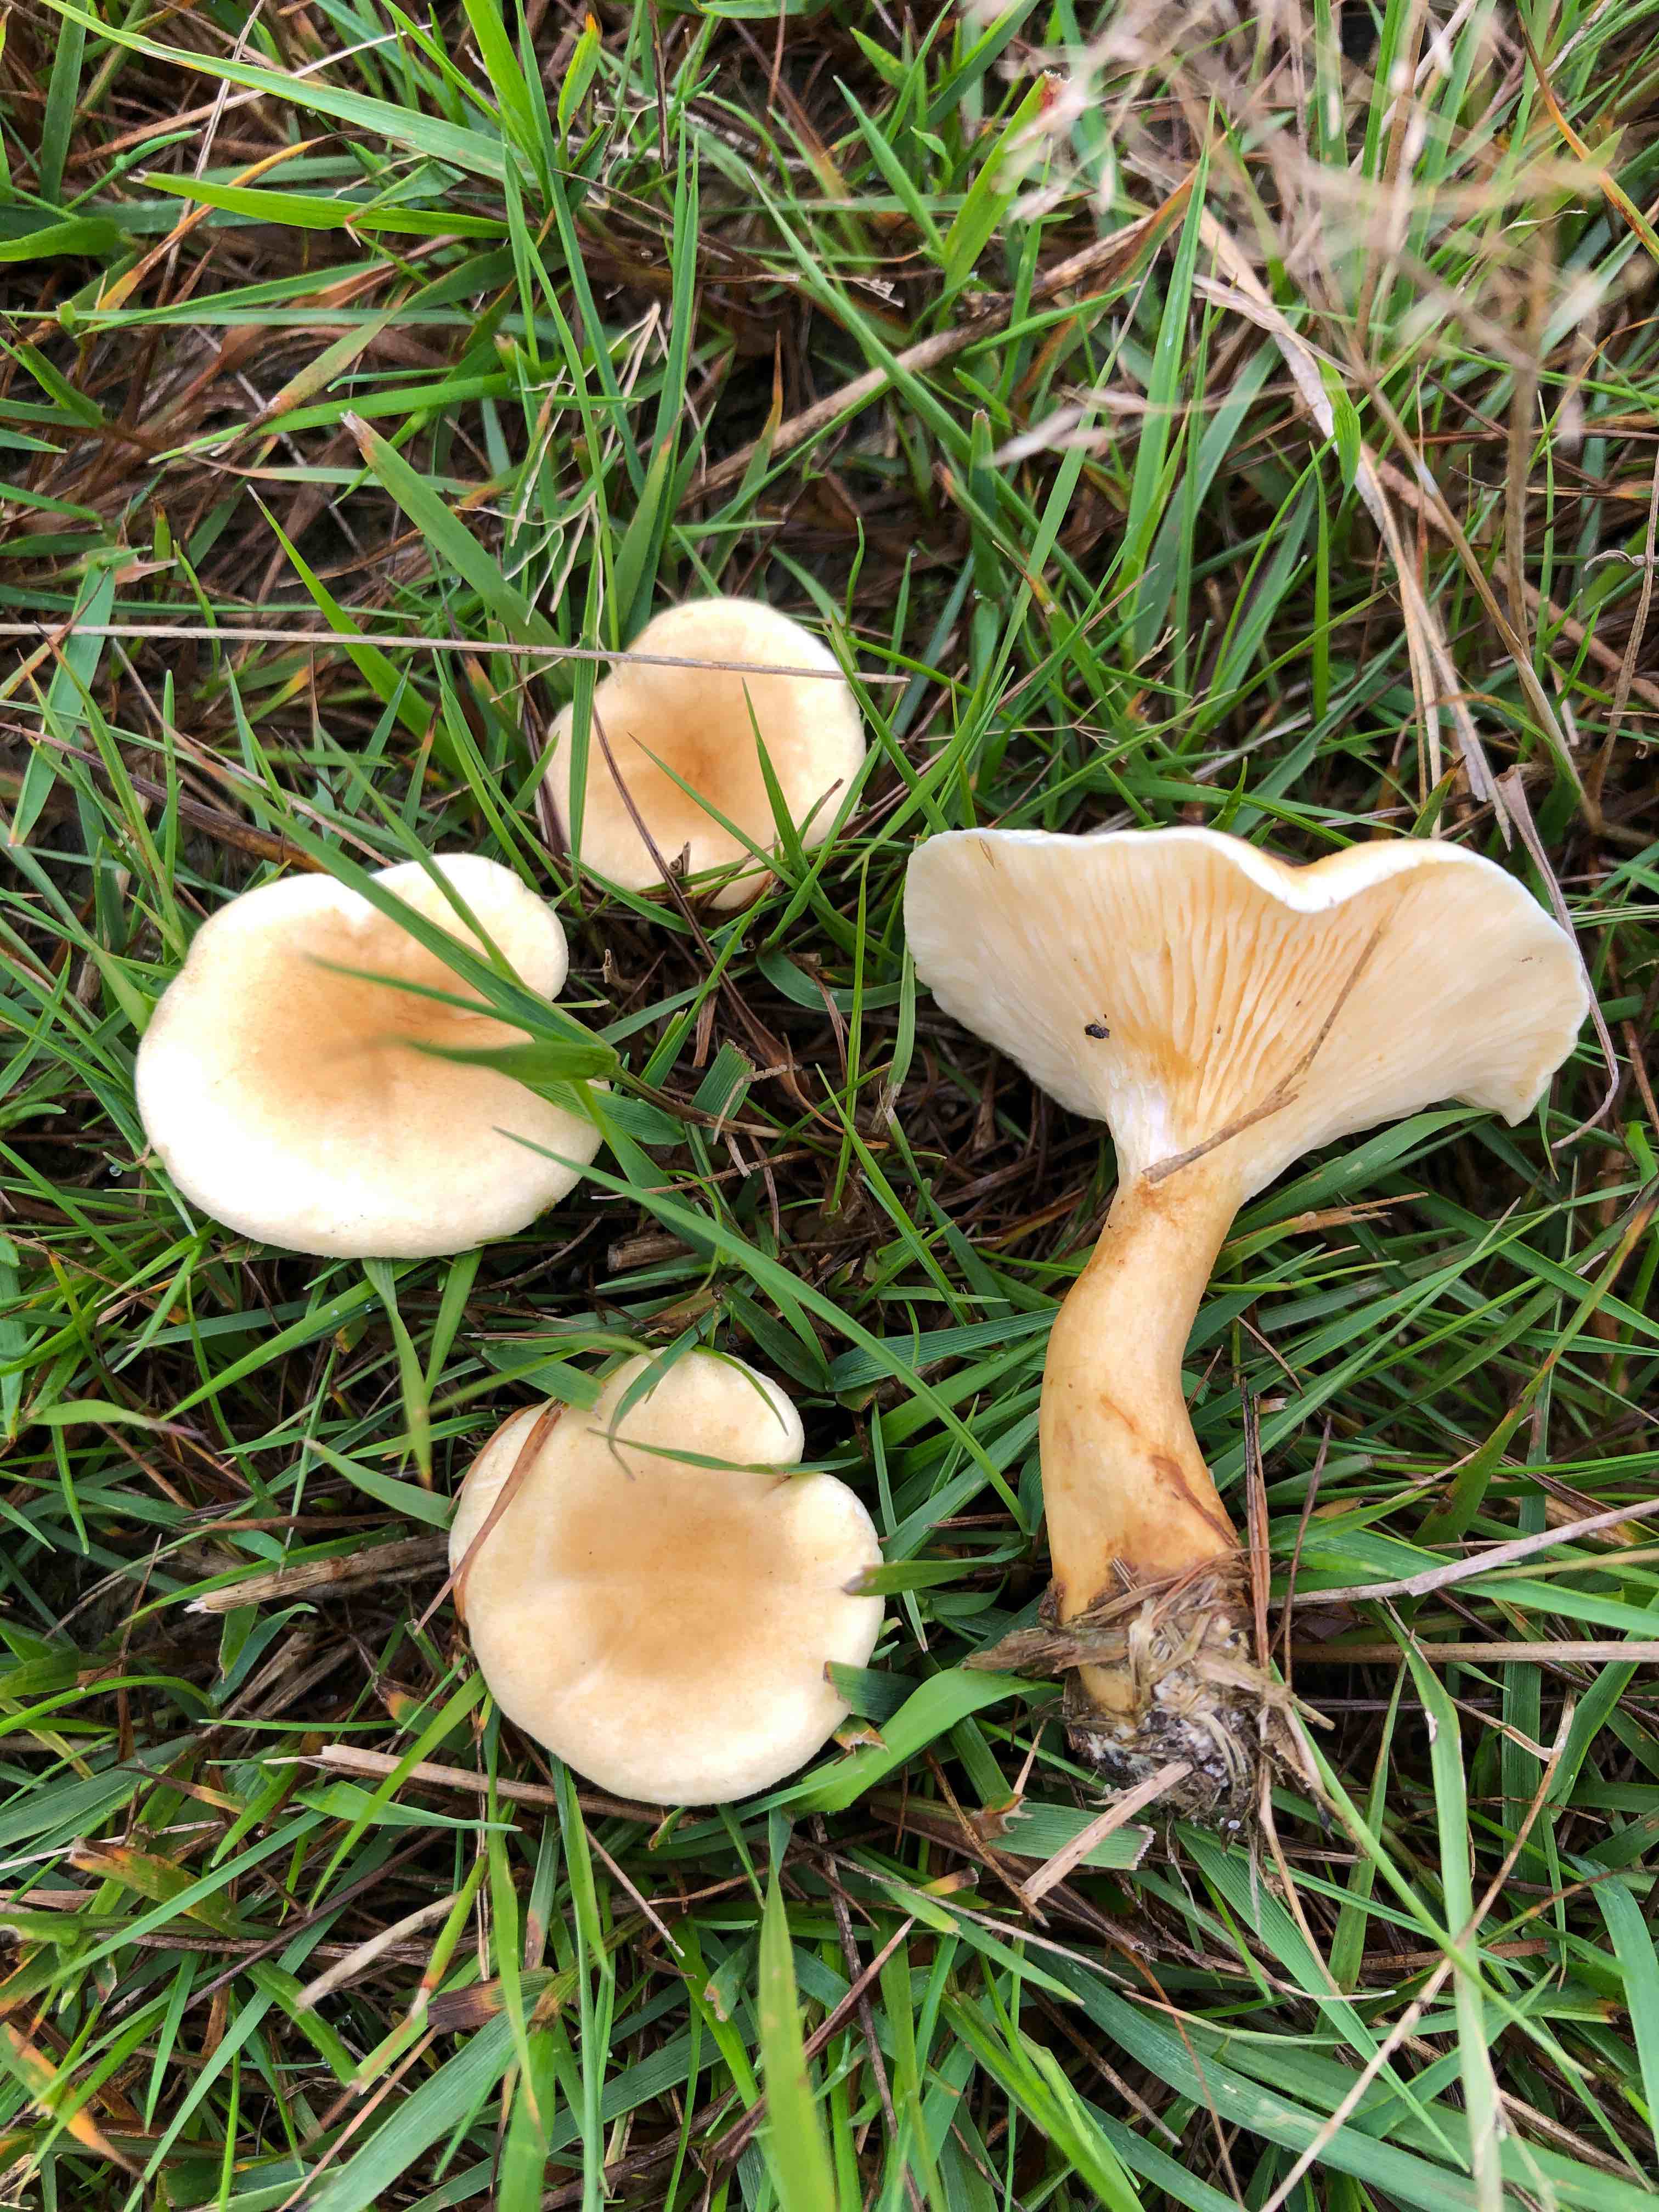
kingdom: Fungi
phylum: Basidiomycota
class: Agaricomycetes
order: Boletales
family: Hygrophoropsidaceae
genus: Hygrophoropsis
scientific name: Hygrophoropsis pallida
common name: bleg orangekantarel
